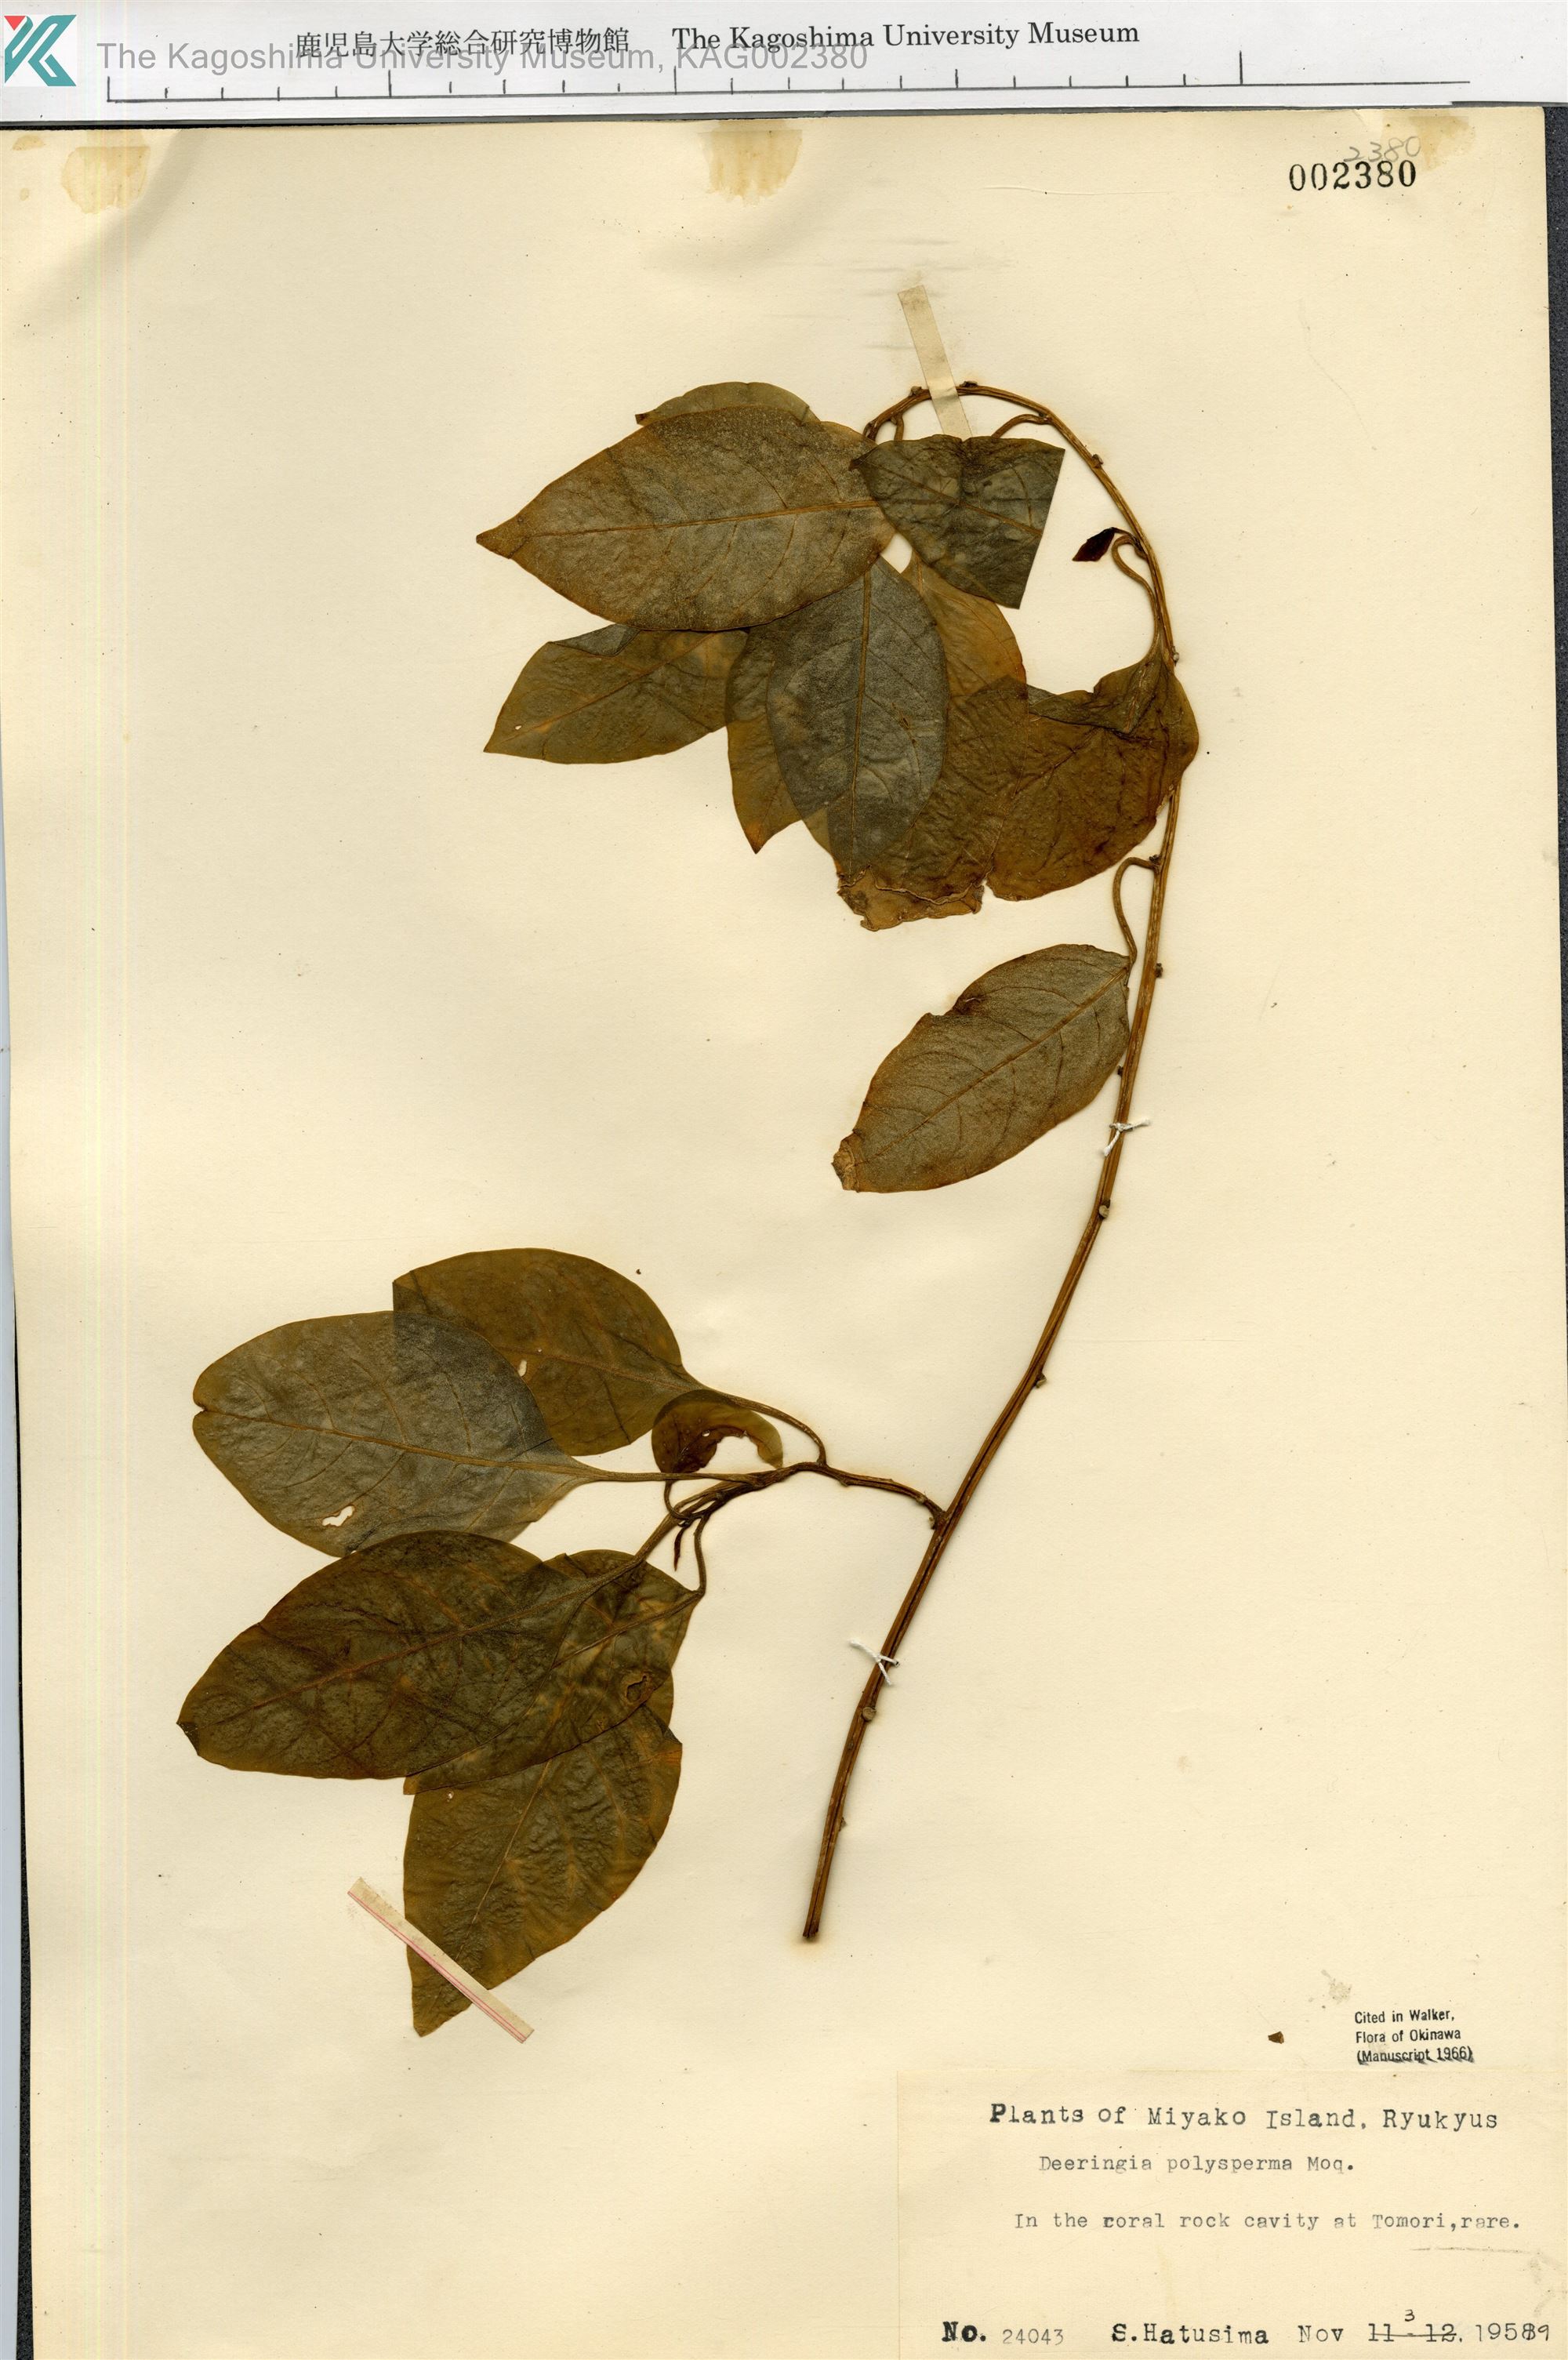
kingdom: Plantae
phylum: Tracheophyta
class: Magnoliopsida
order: Caryophyllales
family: Amaranthaceae
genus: Deeringia
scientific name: Deeringia polysperma
